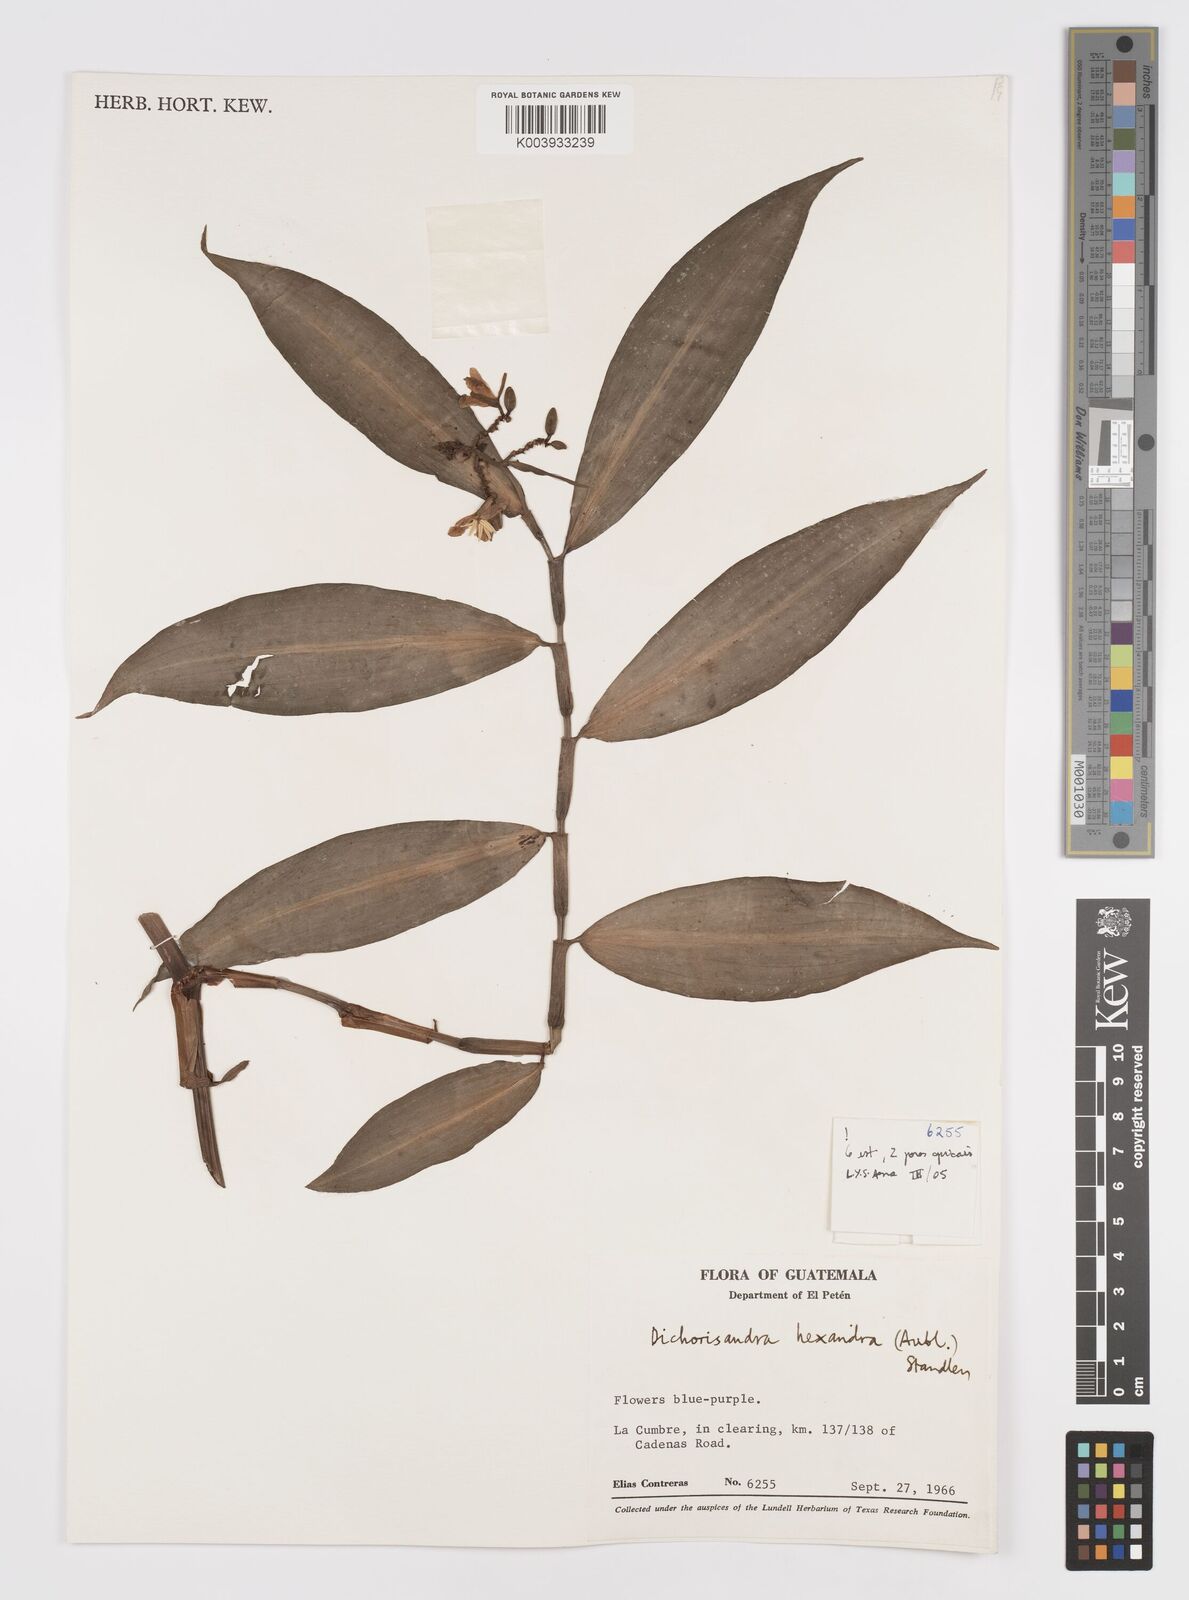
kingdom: Plantae
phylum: Tracheophyta
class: Liliopsida
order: Commelinales
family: Commelinaceae
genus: Dichorisandra
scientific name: Dichorisandra hexandra
